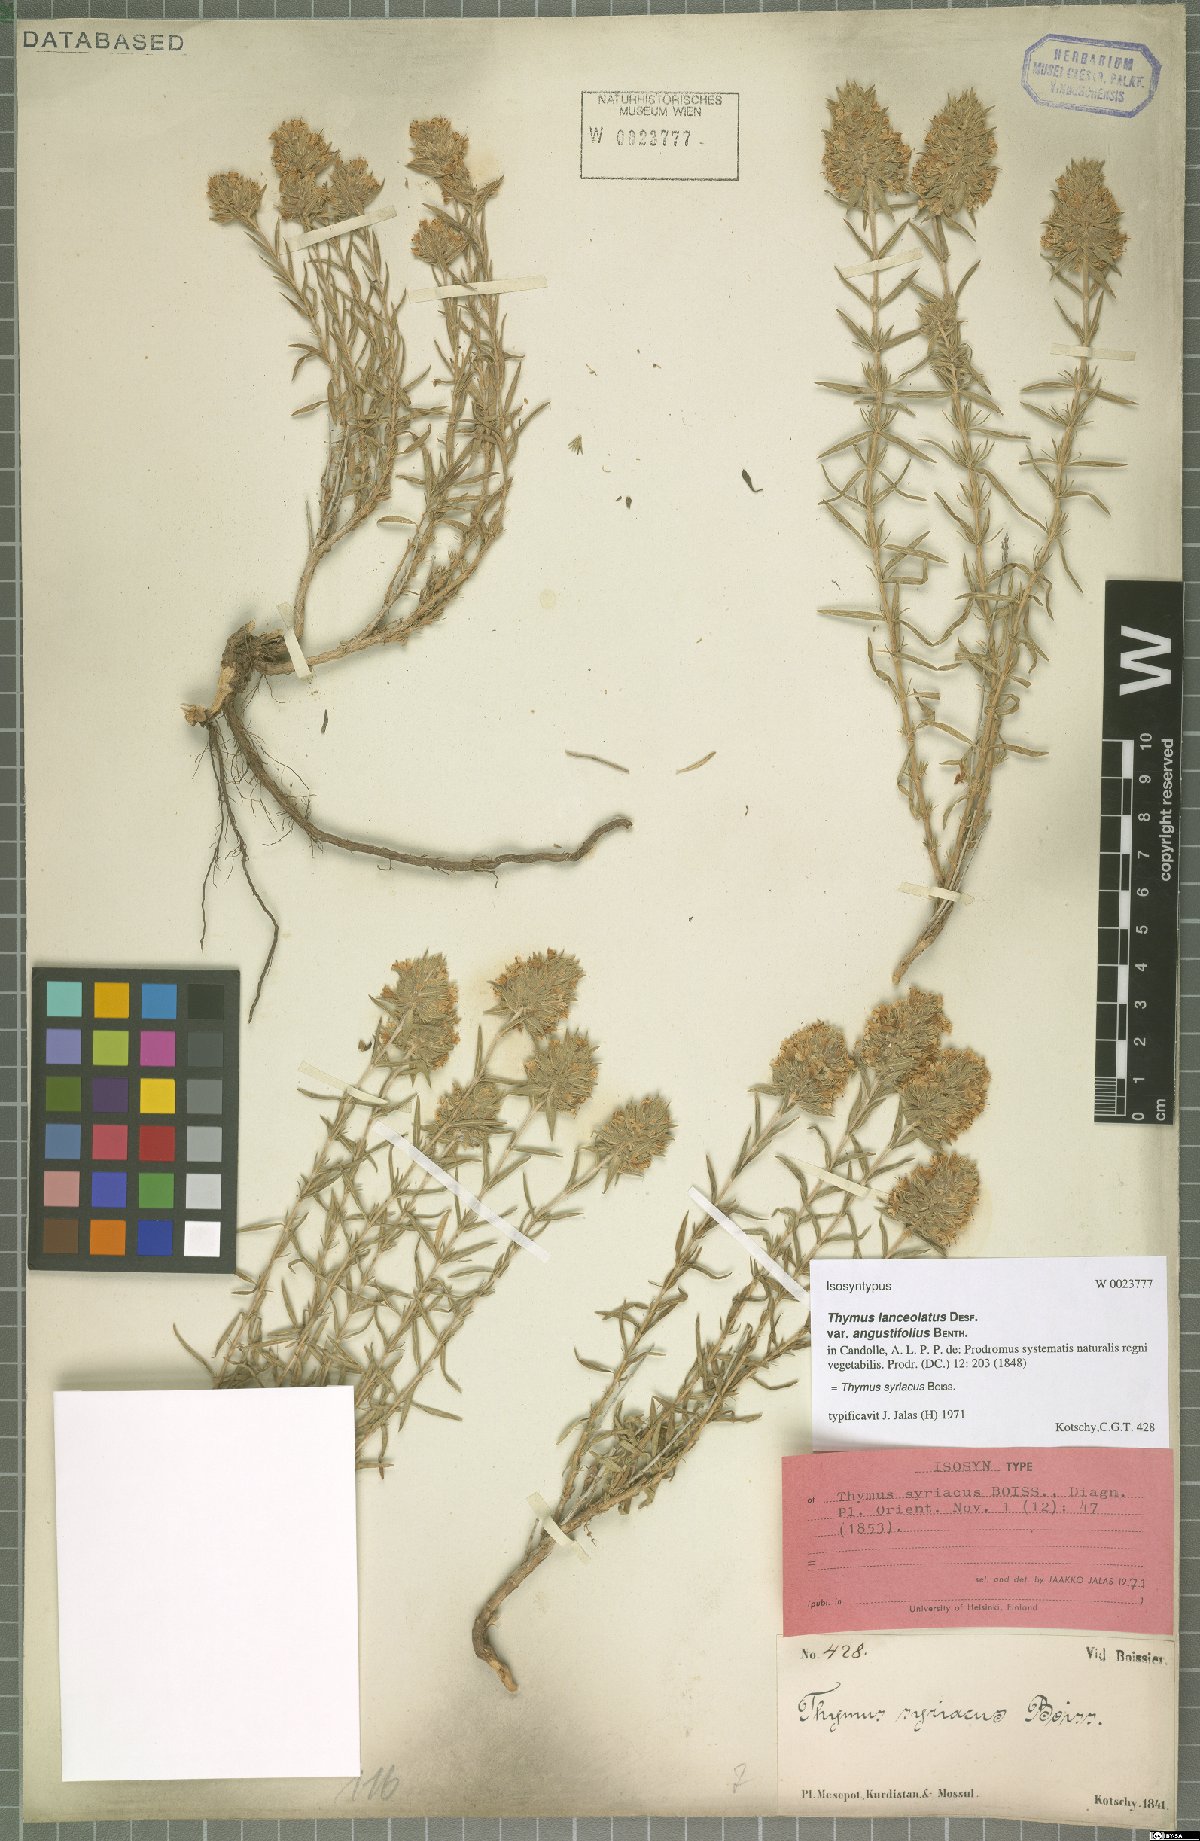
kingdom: Plantae
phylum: Tracheophyta
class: Magnoliopsida
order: Lamiales
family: Lamiaceae
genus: Thymus
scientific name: Thymus syriacus
